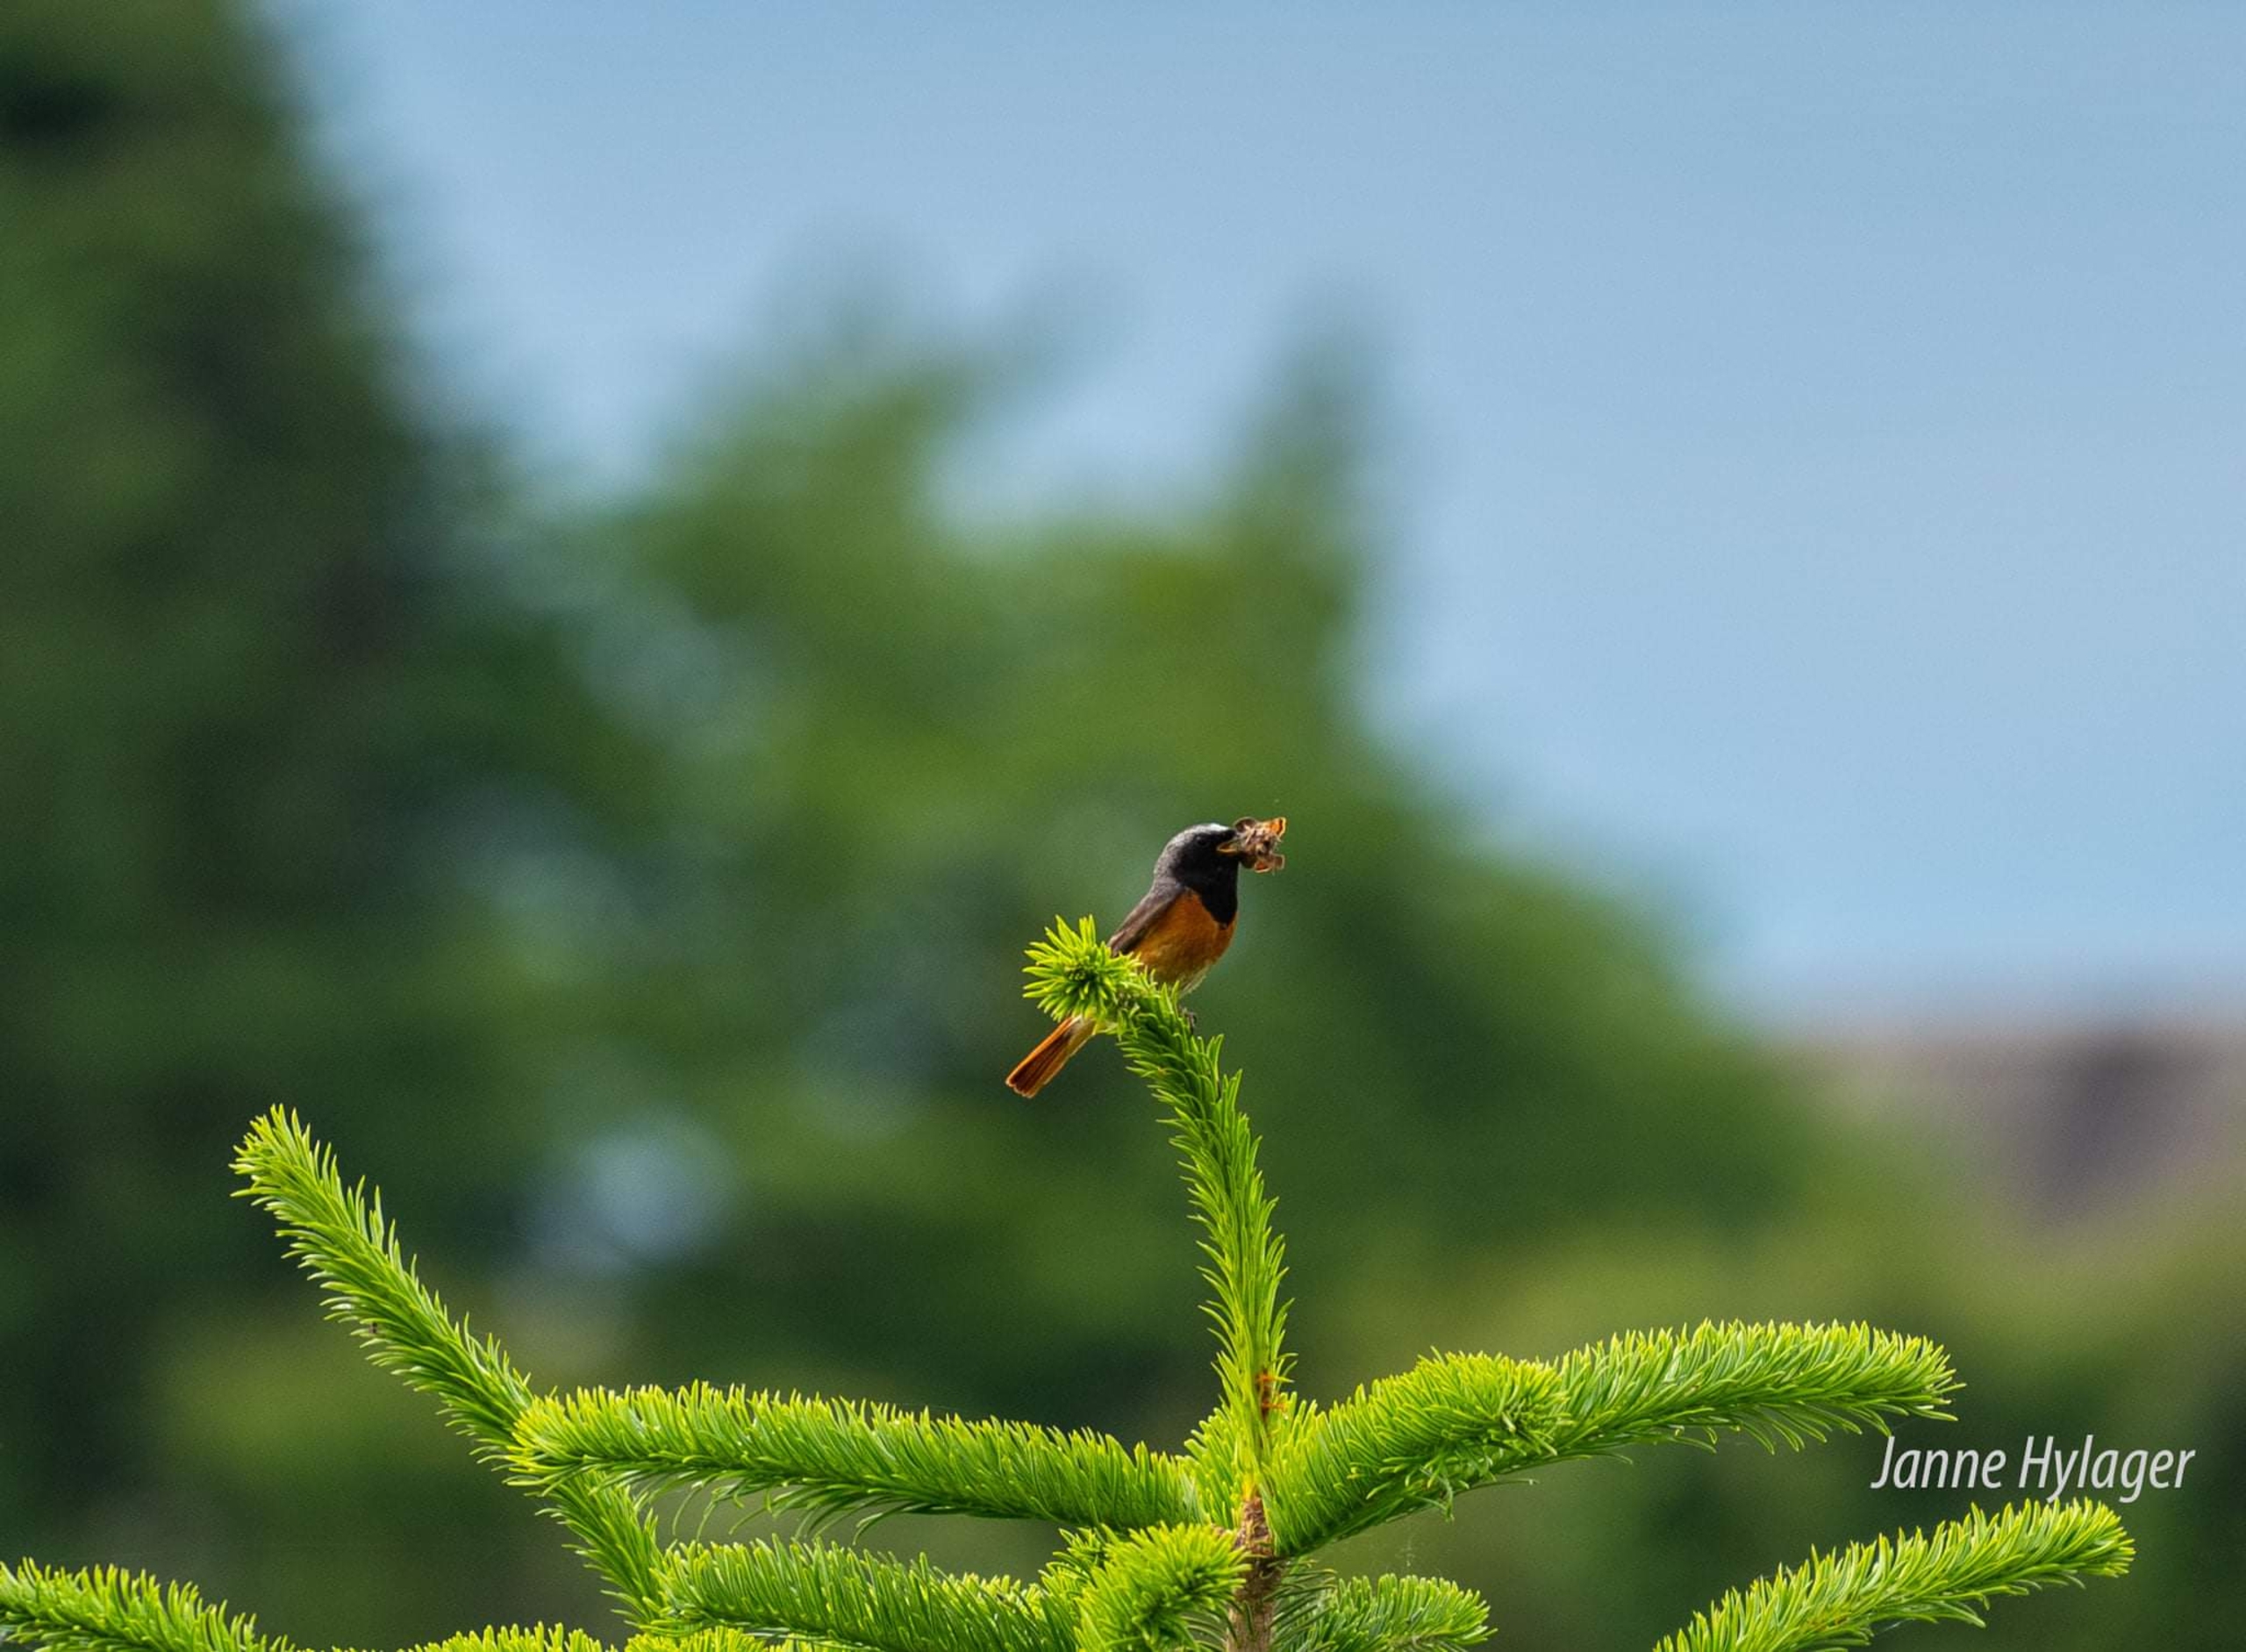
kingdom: Animalia
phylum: Chordata
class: Aves
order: Passeriformes
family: Muscicapidae
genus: Phoenicurus
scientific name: Phoenicurus phoenicurus
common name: Rødstjert
